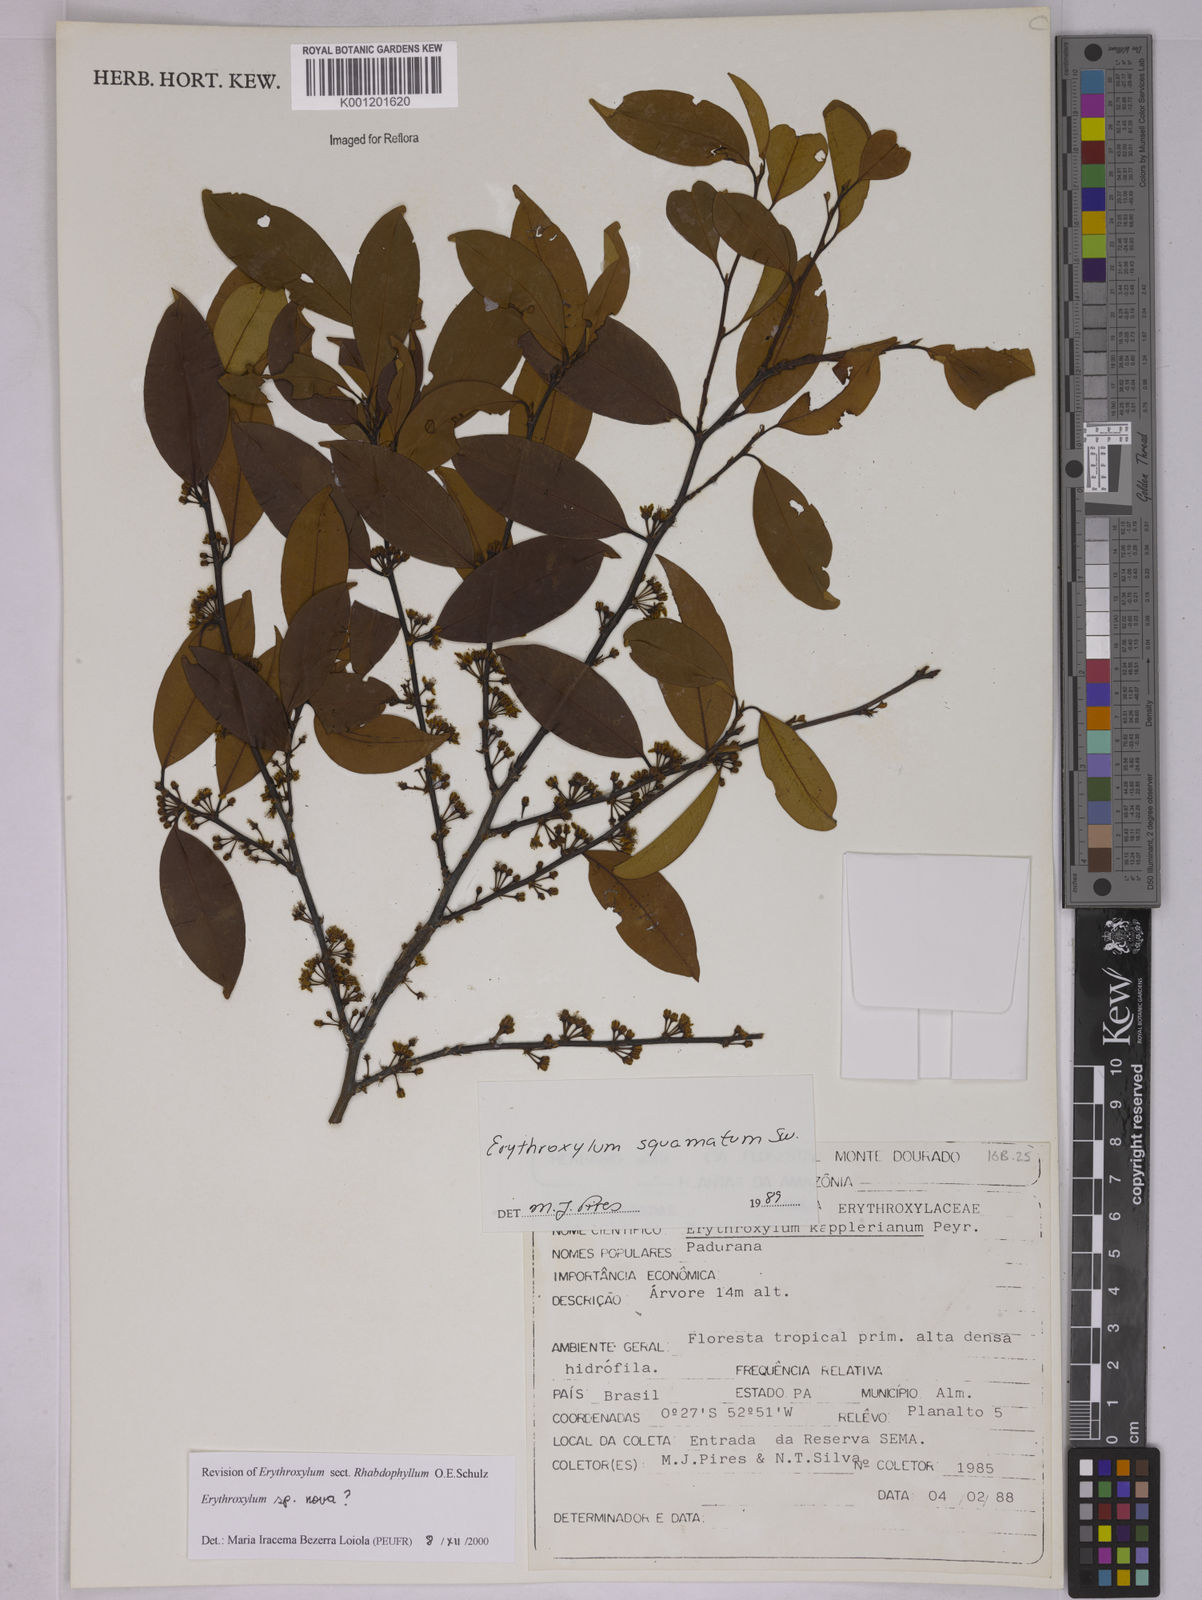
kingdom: Plantae
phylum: Tracheophyta
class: Magnoliopsida
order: Malpighiales
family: Erythroxylaceae
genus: Erythroxylum
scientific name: Erythroxylum
